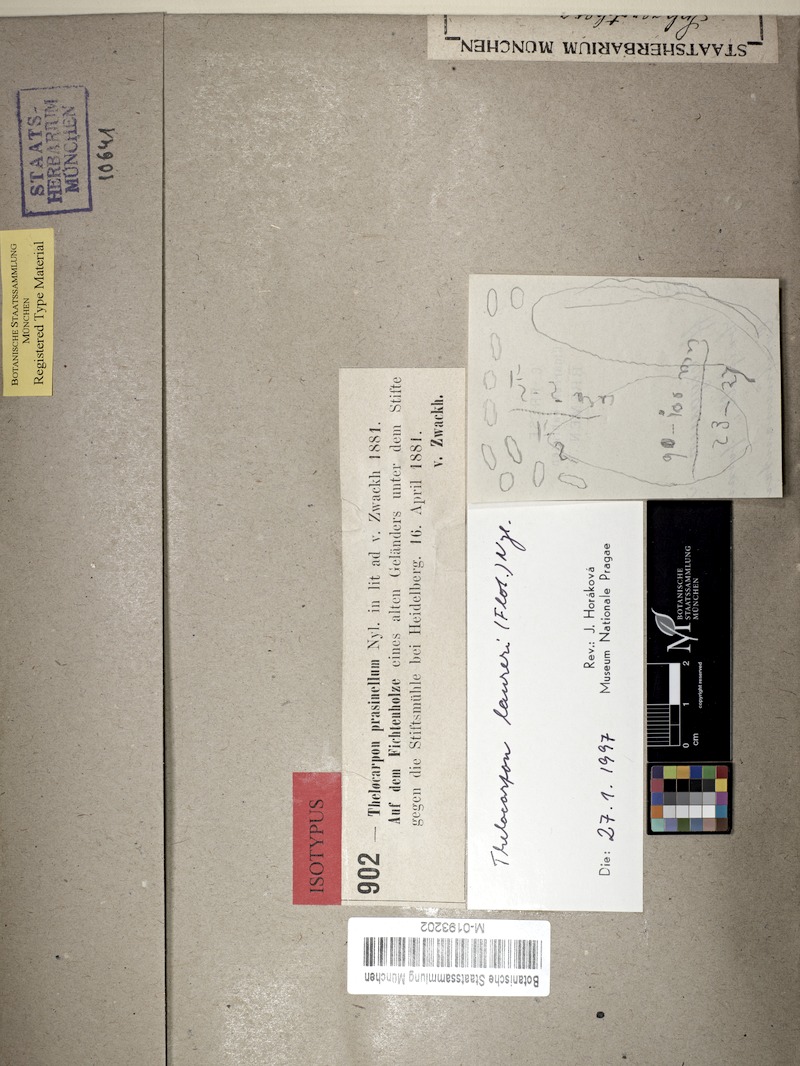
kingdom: Fungi
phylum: Ascomycota
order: Thelocarpales
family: Thelocarpaceae
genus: Thelocarpon
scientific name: Thelocarpon laureri
